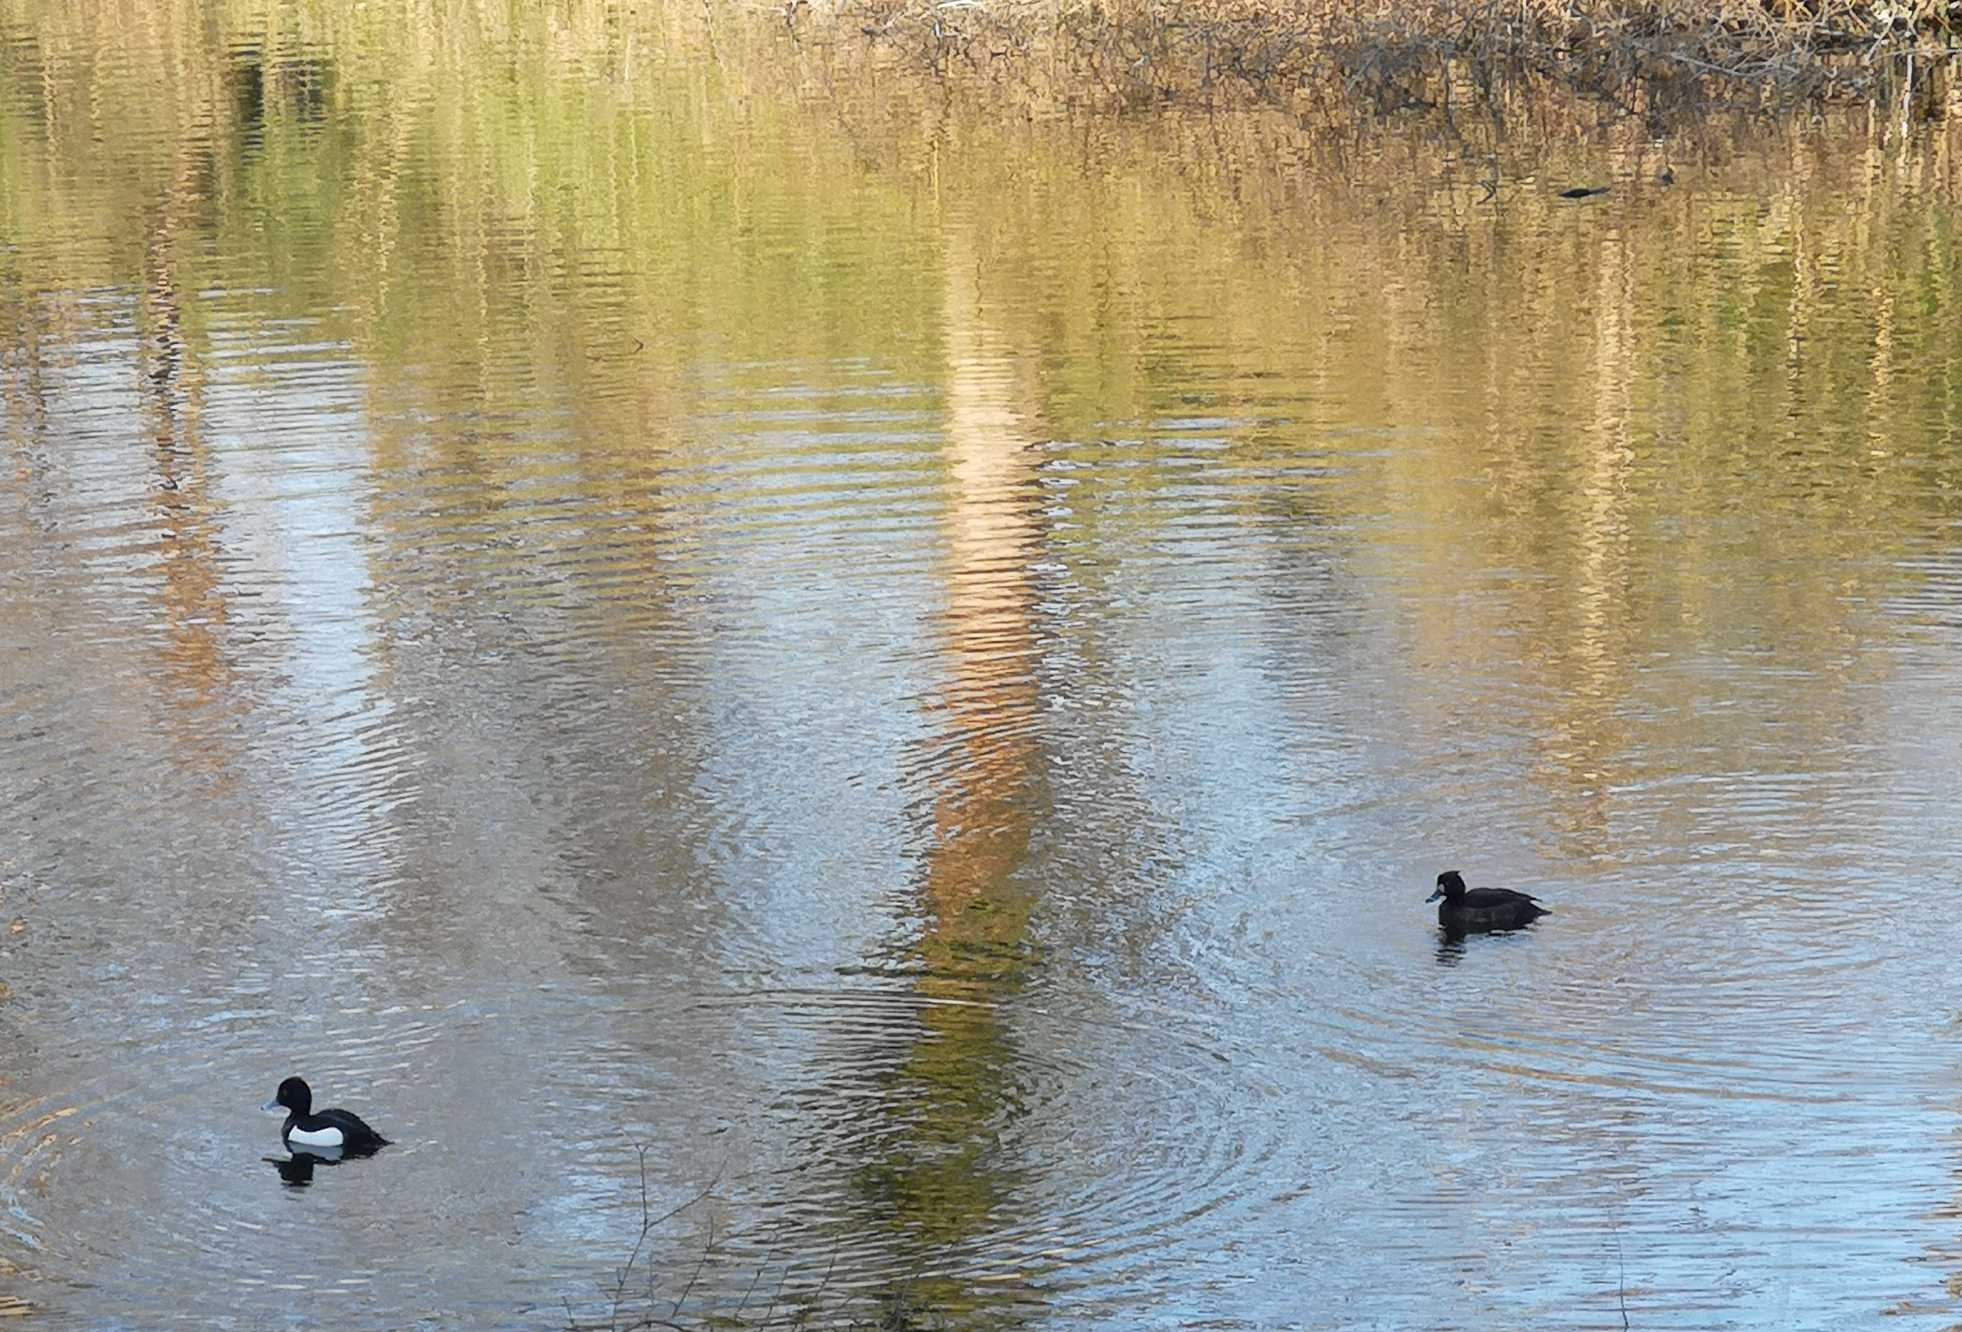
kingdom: Animalia
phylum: Chordata
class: Aves
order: Anseriformes
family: Anatidae
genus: Aythya
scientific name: Aythya fuligula
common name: Troldand
